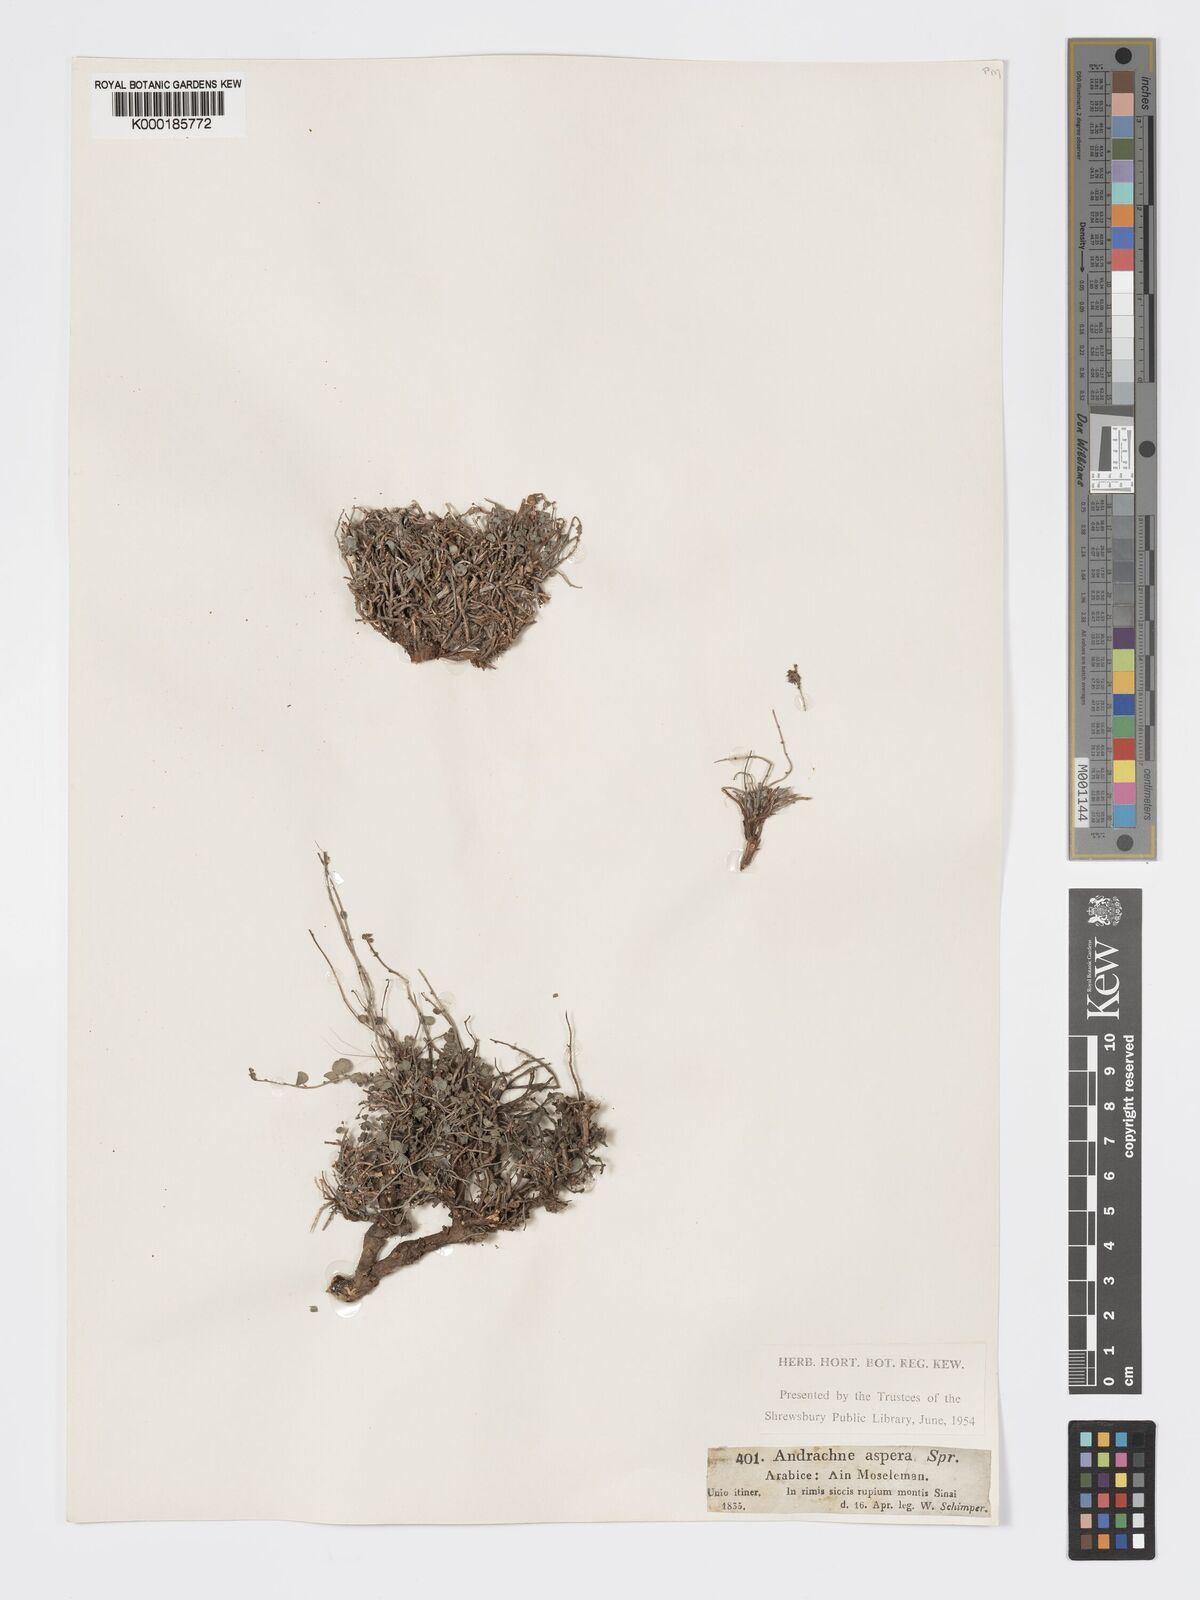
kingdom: Plantae
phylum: Tracheophyta
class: Magnoliopsida
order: Malpighiales
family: Phyllanthaceae
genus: Andrachne
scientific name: Andrachne aspera
